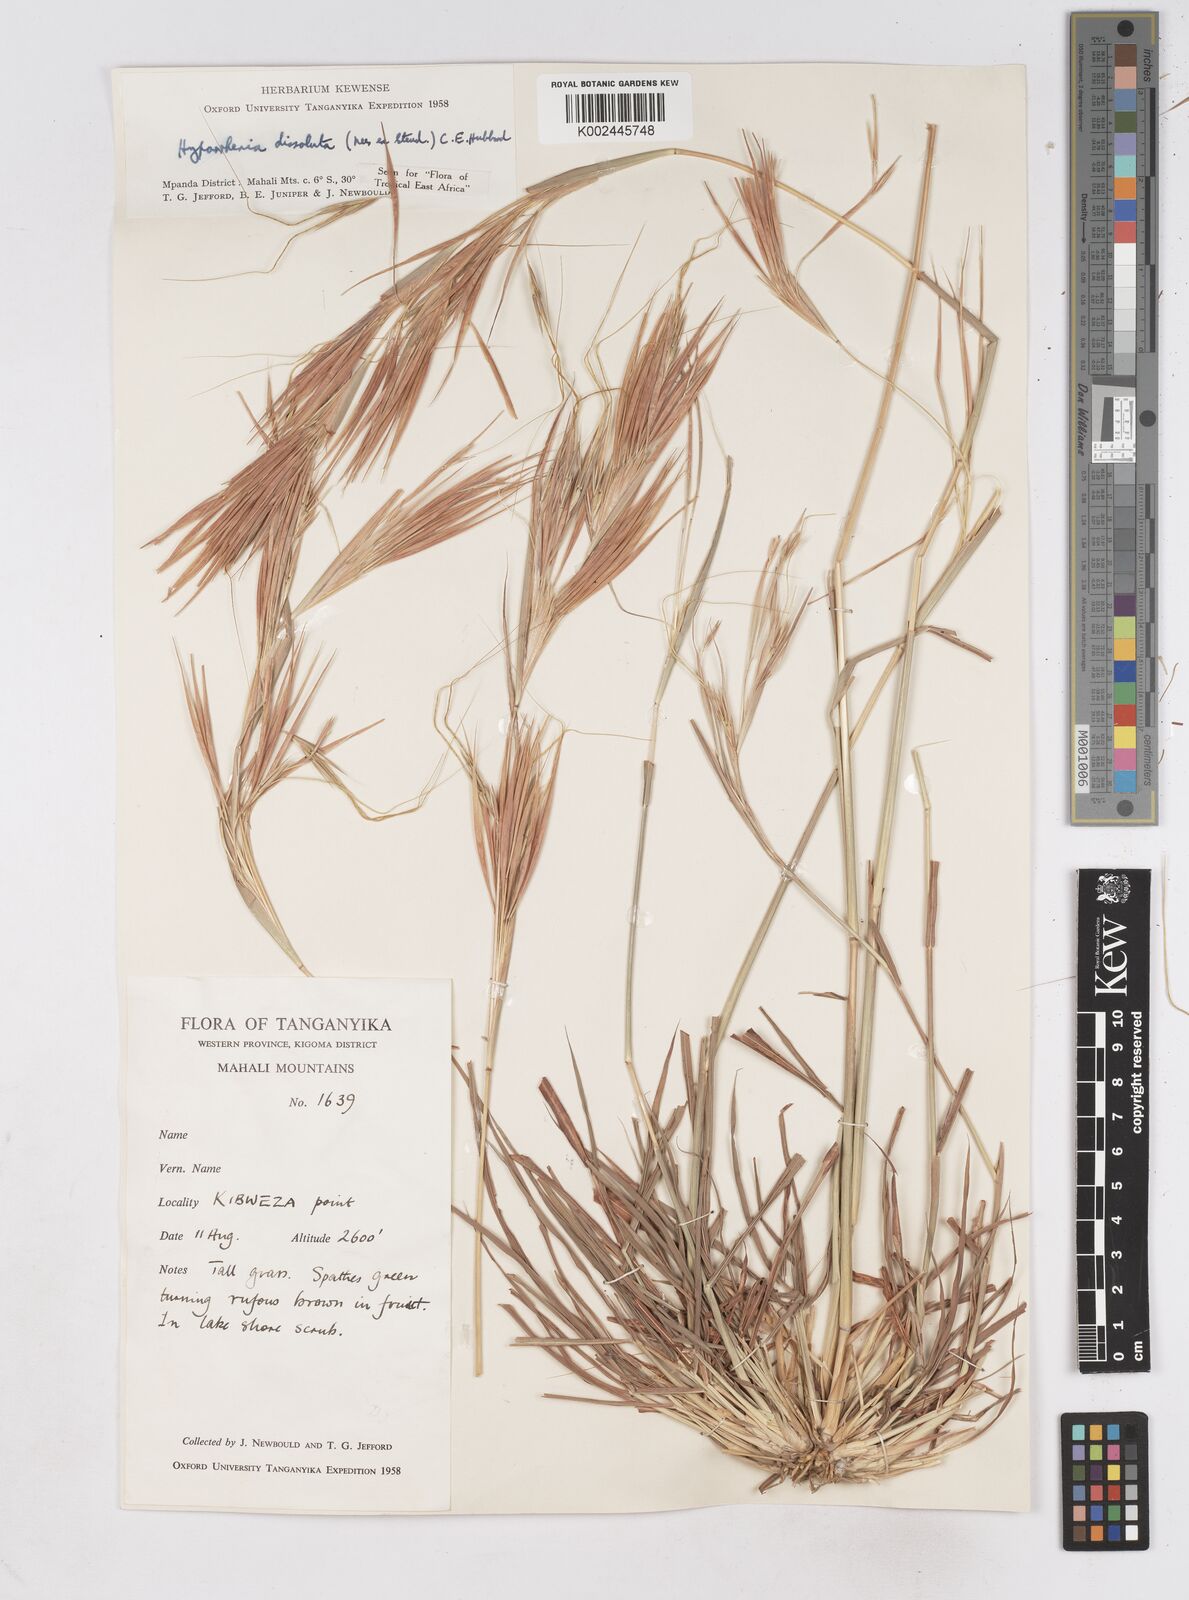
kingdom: Plantae
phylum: Tracheophyta
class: Liliopsida
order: Poales
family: Poaceae
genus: Hyperthelia
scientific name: Hyperthelia dissoluta
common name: Yellow thatching grass
